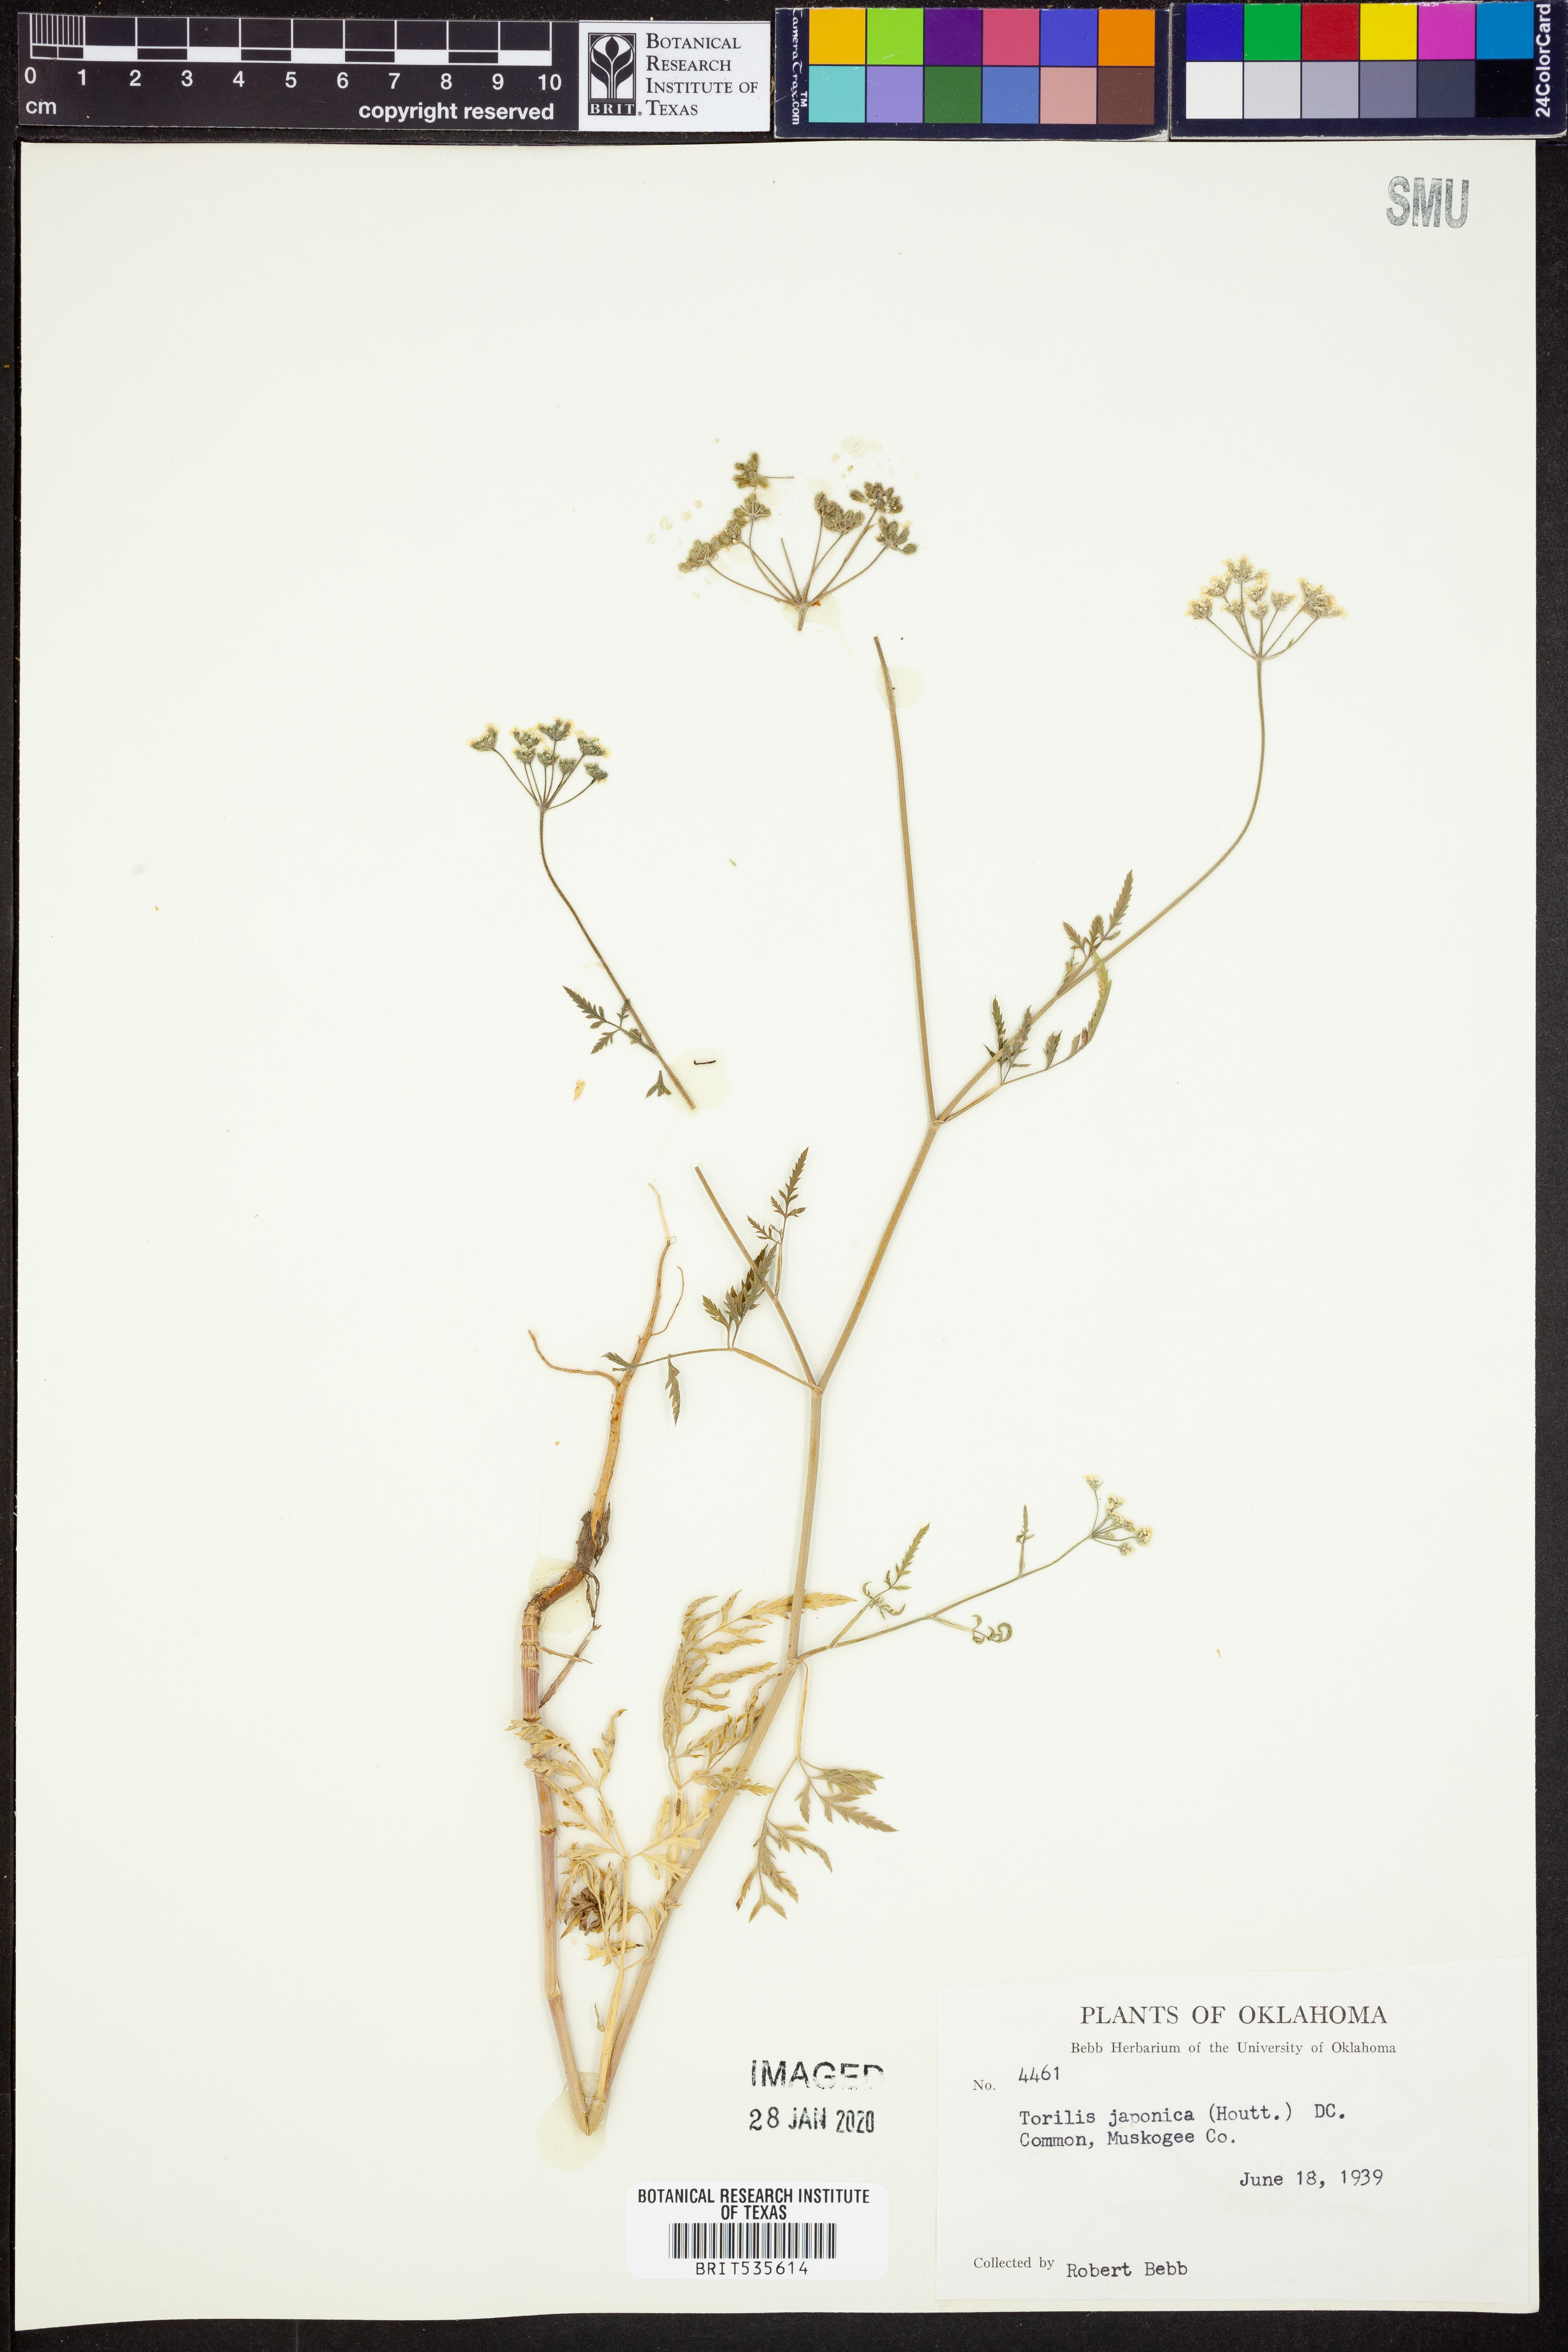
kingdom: Plantae
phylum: Tracheophyta
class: Magnoliopsida
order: Apiales
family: Apiaceae
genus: Torilis
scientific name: Torilis japonica
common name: Upright hedge-parsley
